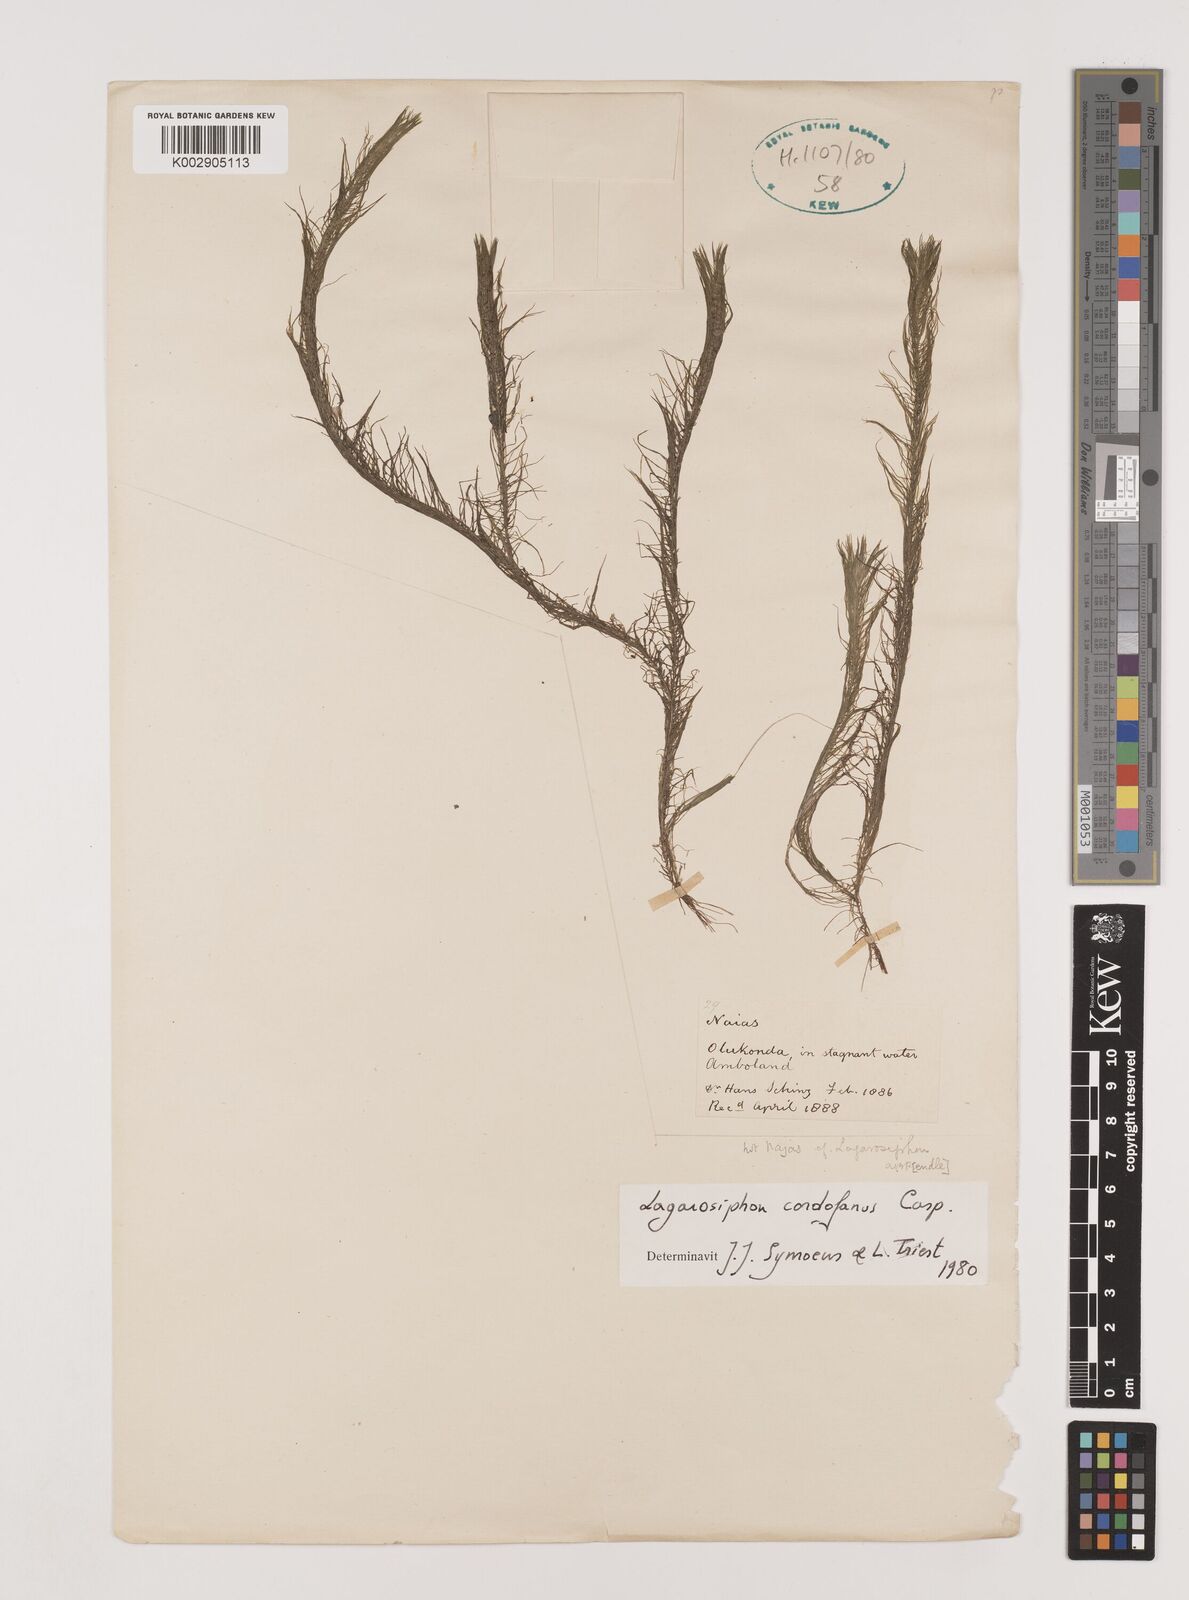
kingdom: Plantae
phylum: Tracheophyta
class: Liliopsida
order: Alismatales
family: Hydrocharitaceae
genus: Lagarosiphon
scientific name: Lagarosiphon cordofanus
